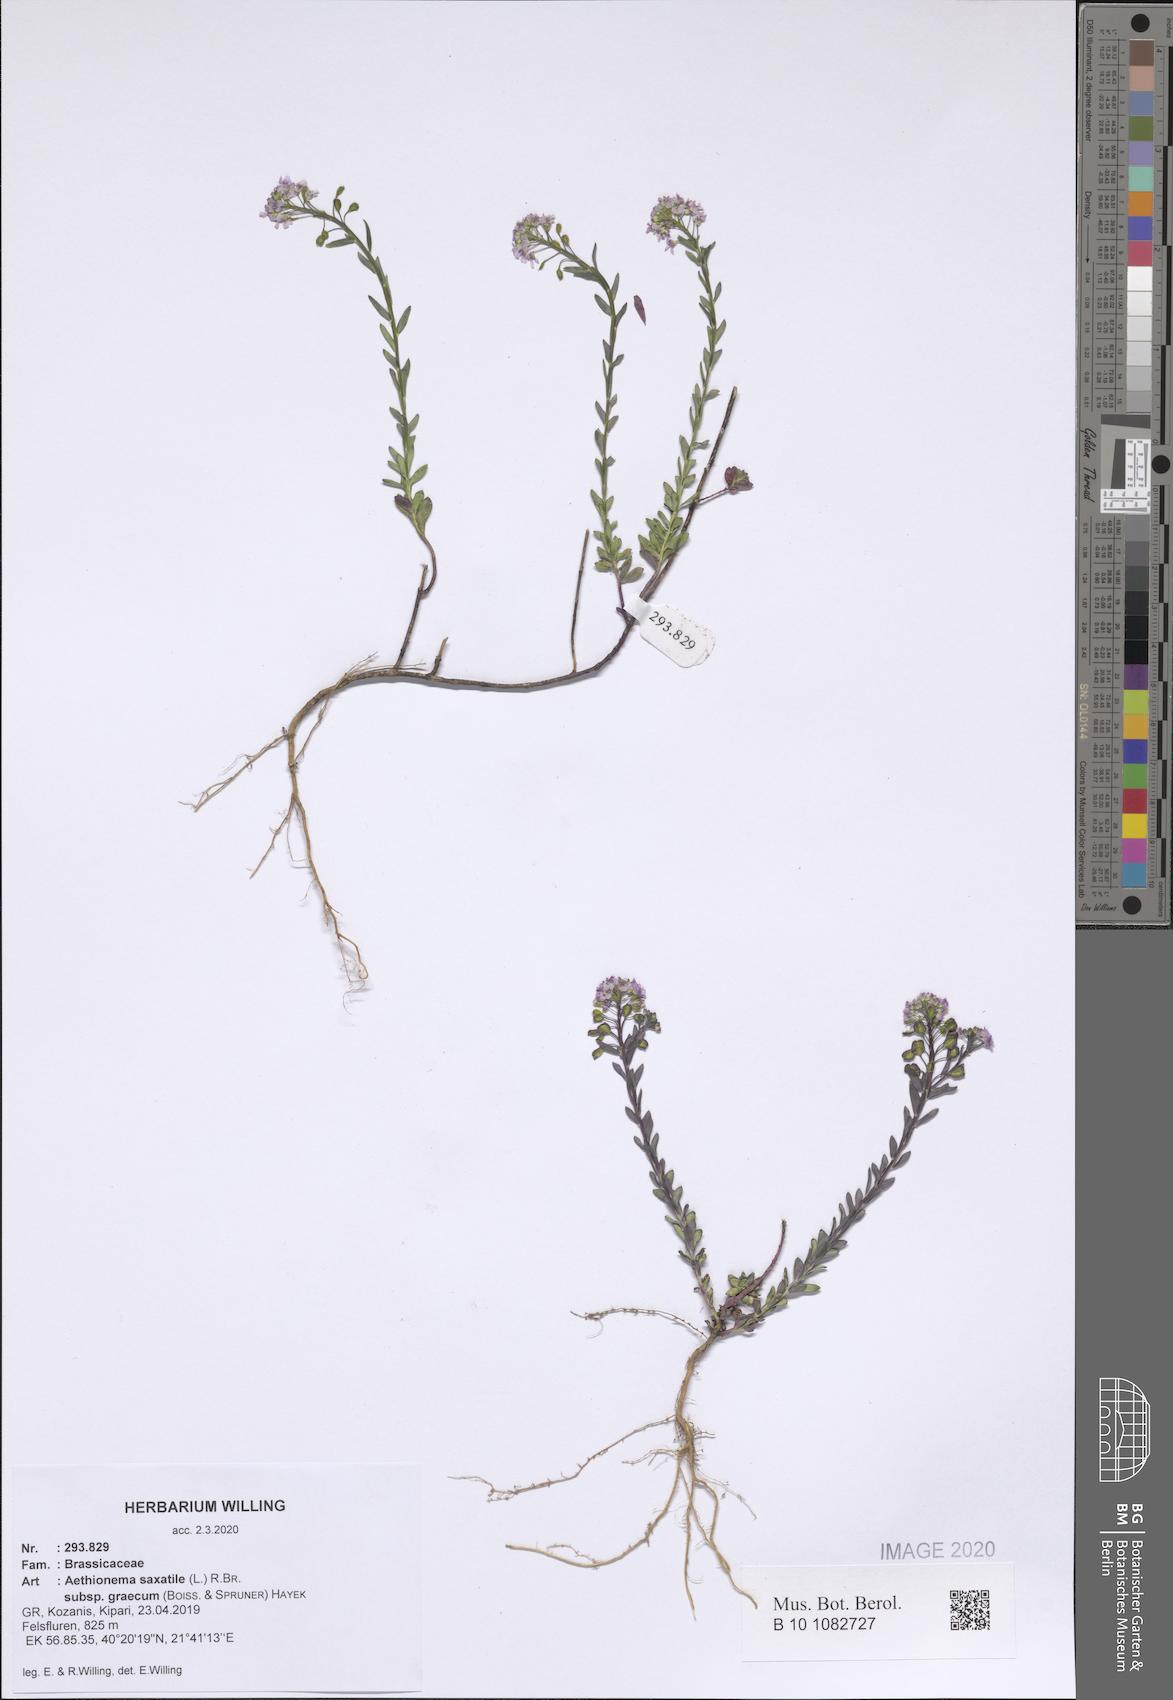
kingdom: Plantae
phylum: Tracheophyta
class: Magnoliopsida
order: Brassicales
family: Brassicaceae
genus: Aethionema
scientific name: Aethionema saxatile
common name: Burnt candytuft
